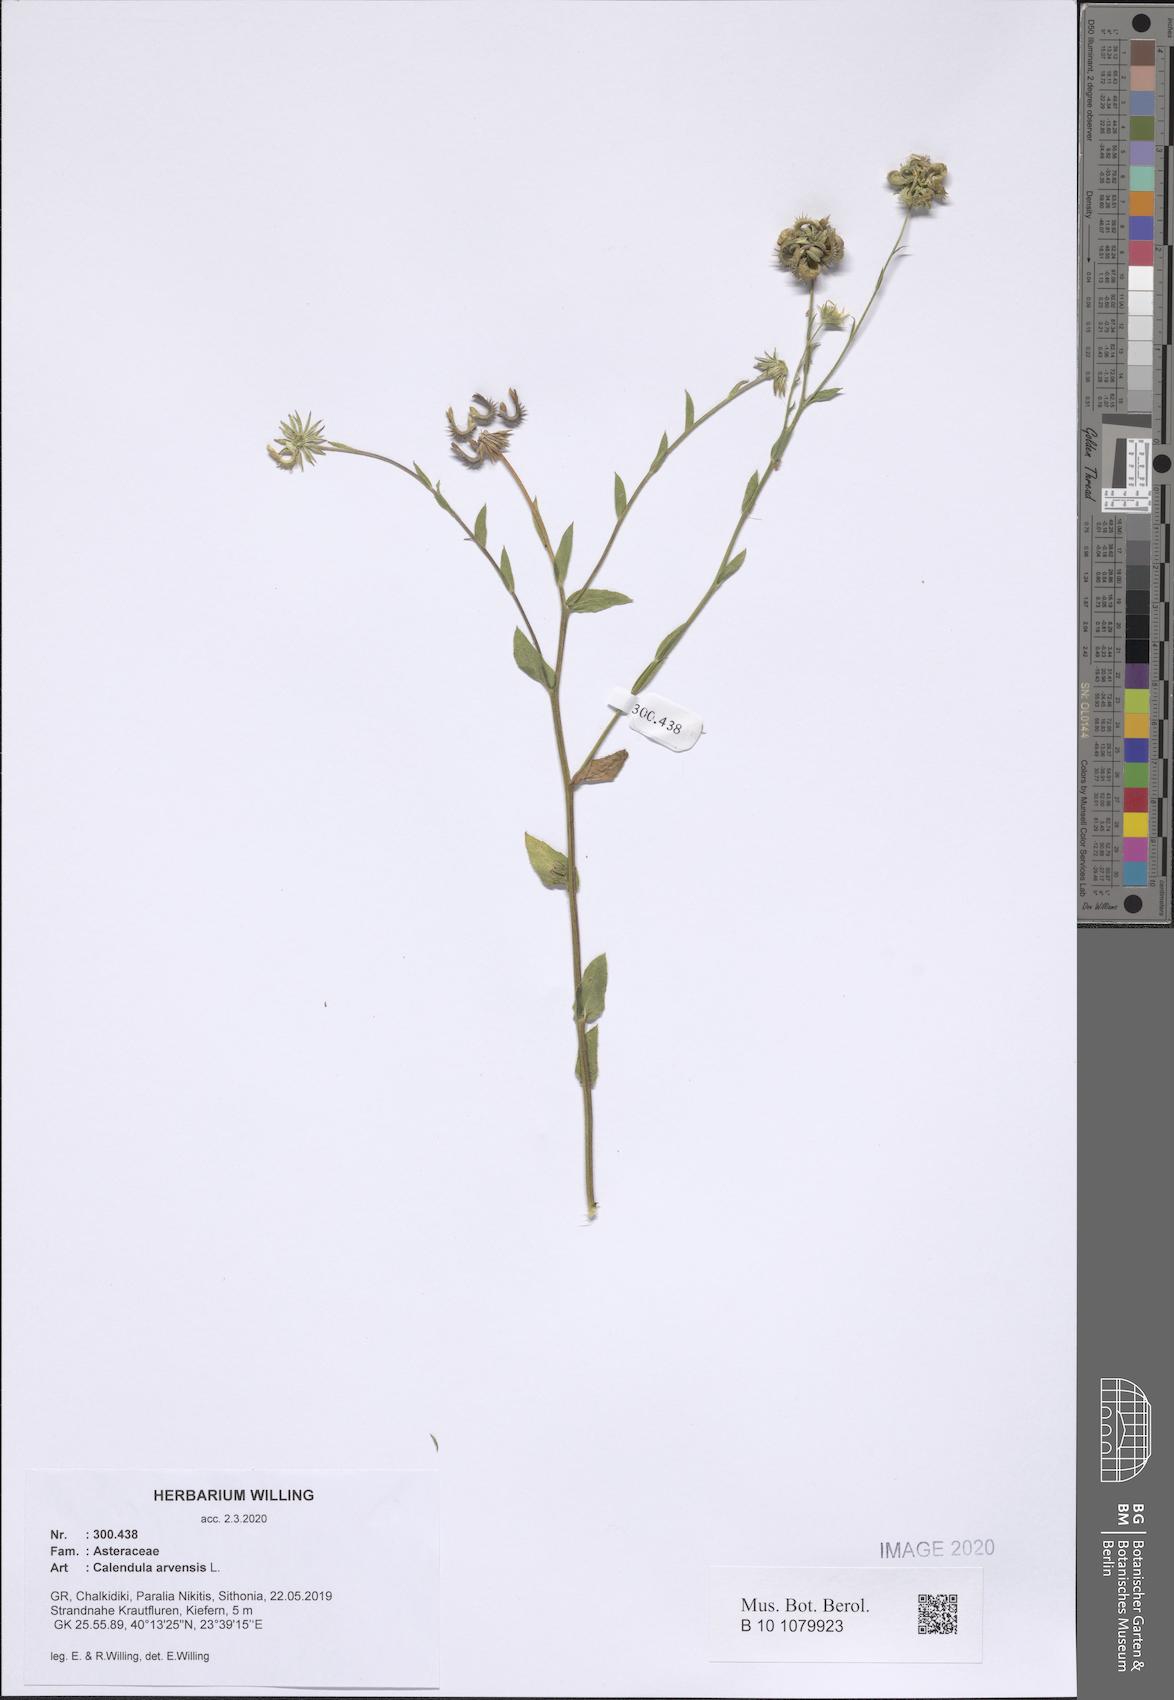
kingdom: Plantae
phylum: Tracheophyta
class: Magnoliopsida
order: Asterales
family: Asteraceae
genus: Calendula
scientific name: Calendula arvensis
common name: Field marigold
